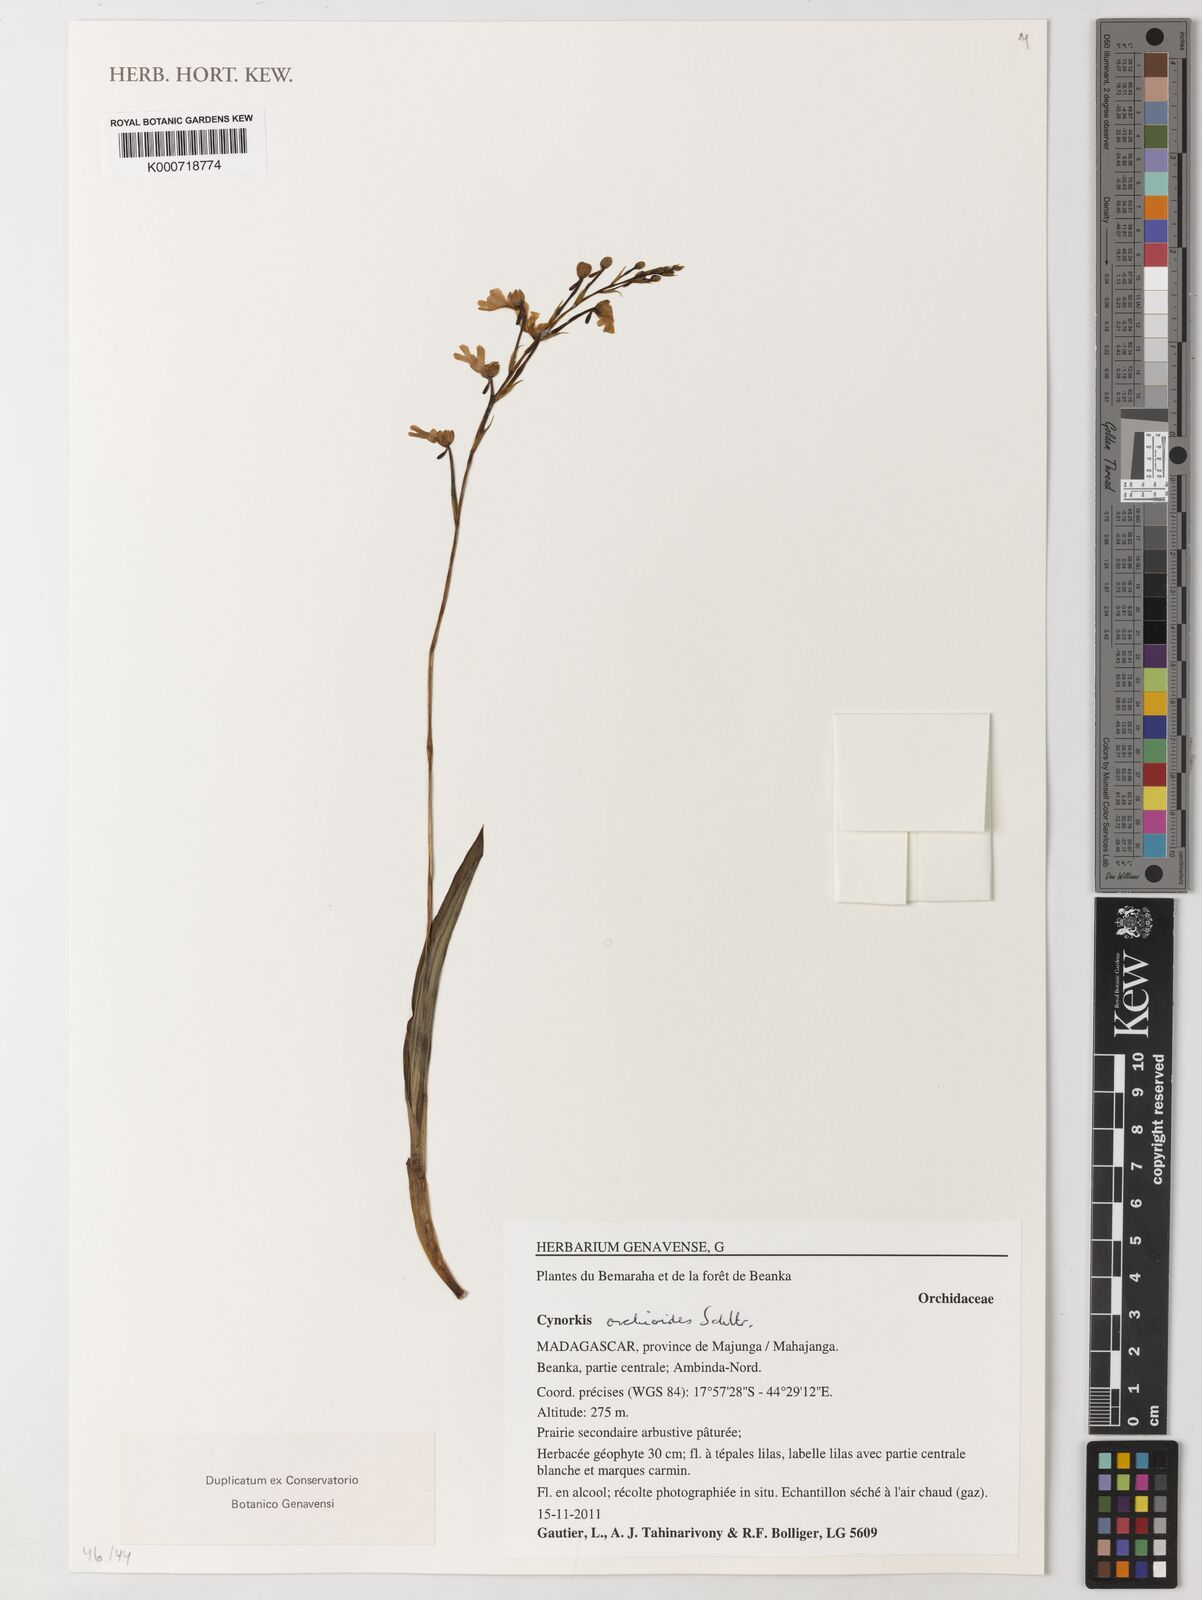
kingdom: Plantae
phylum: Tracheophyta
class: Liliopsida
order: Asparagales
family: Orchidaceae
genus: Cynorkis
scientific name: Cynorkis orchioides
